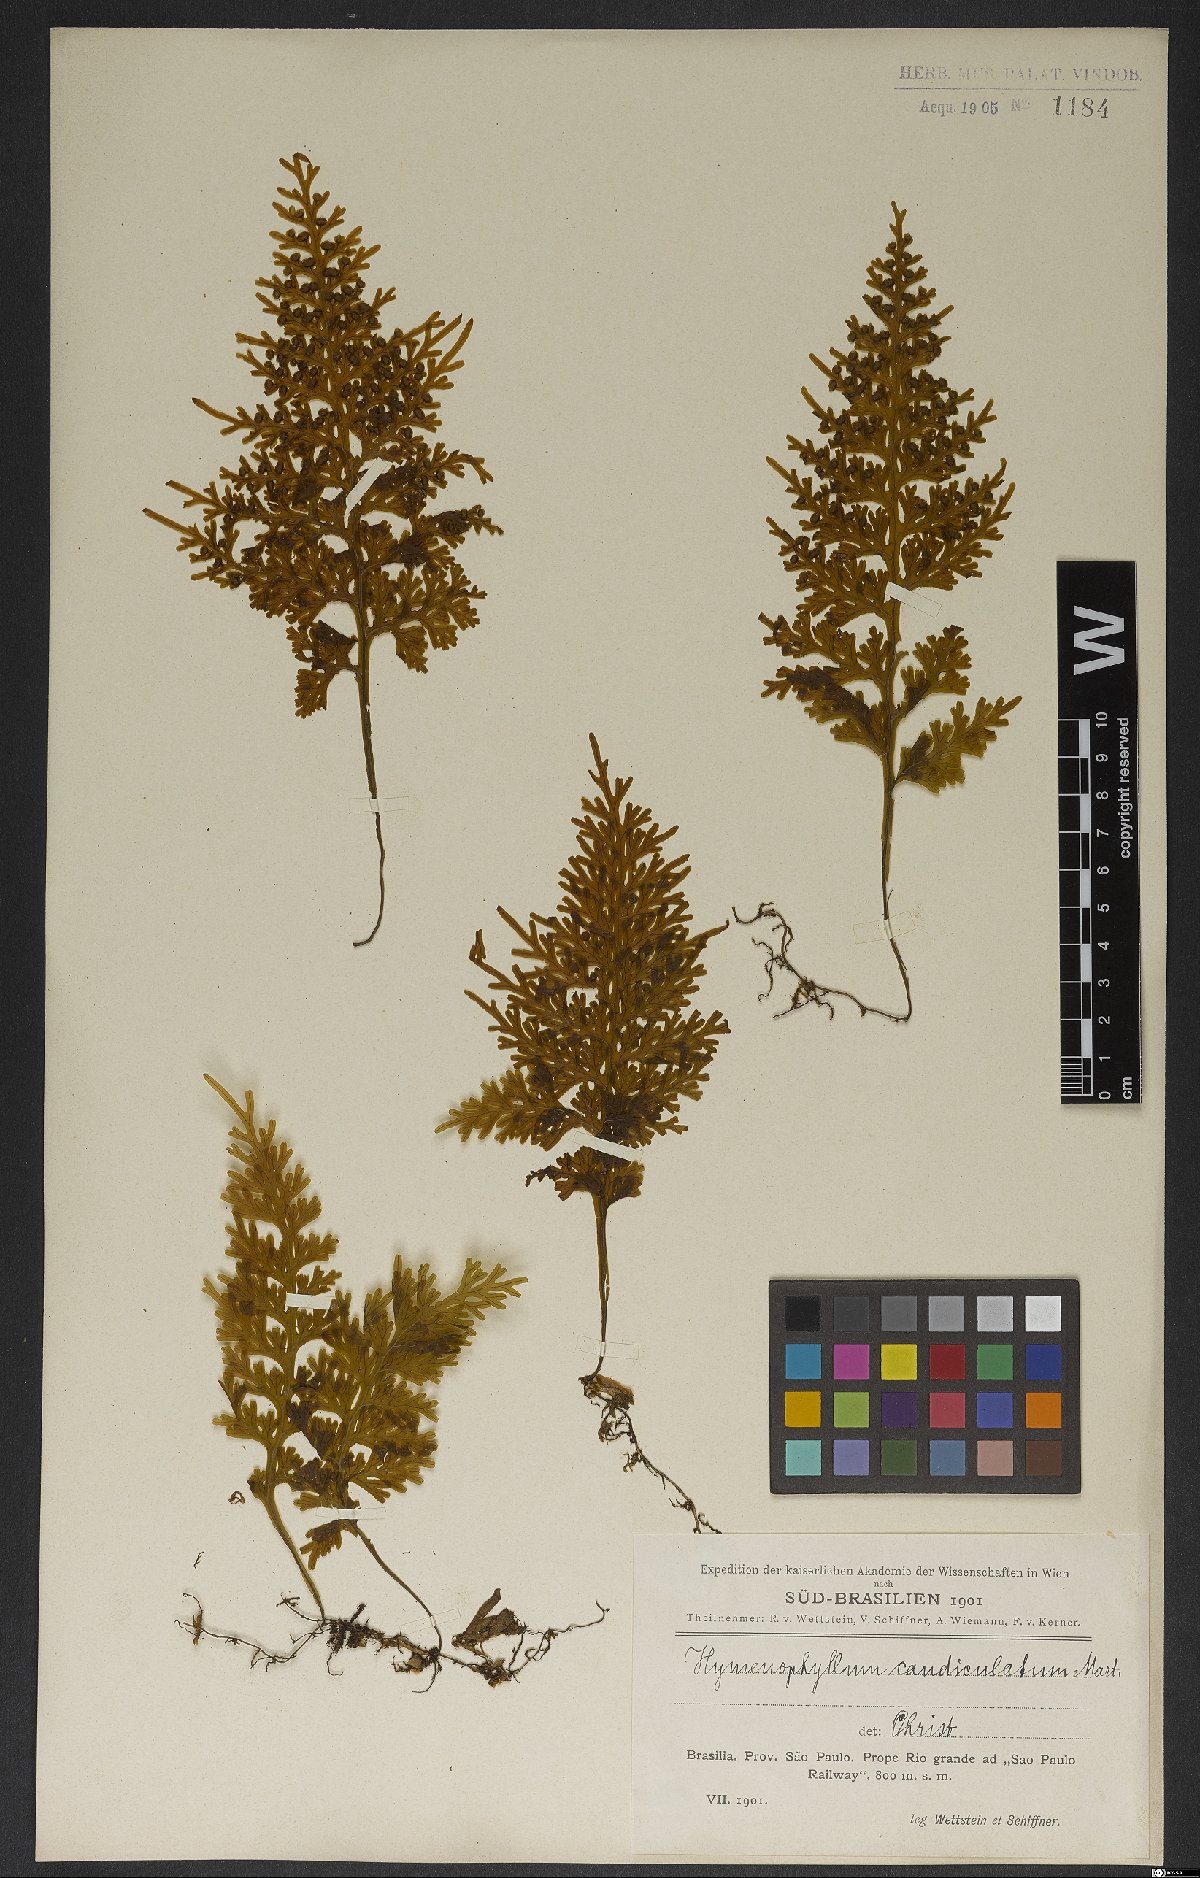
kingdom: Plantae
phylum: Tracheophyta
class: Polypodiopsida
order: Hymenophyllales
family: Hymenophyllaceae
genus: Hymenophyllum
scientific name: Hymenophyllum caudiculatum
